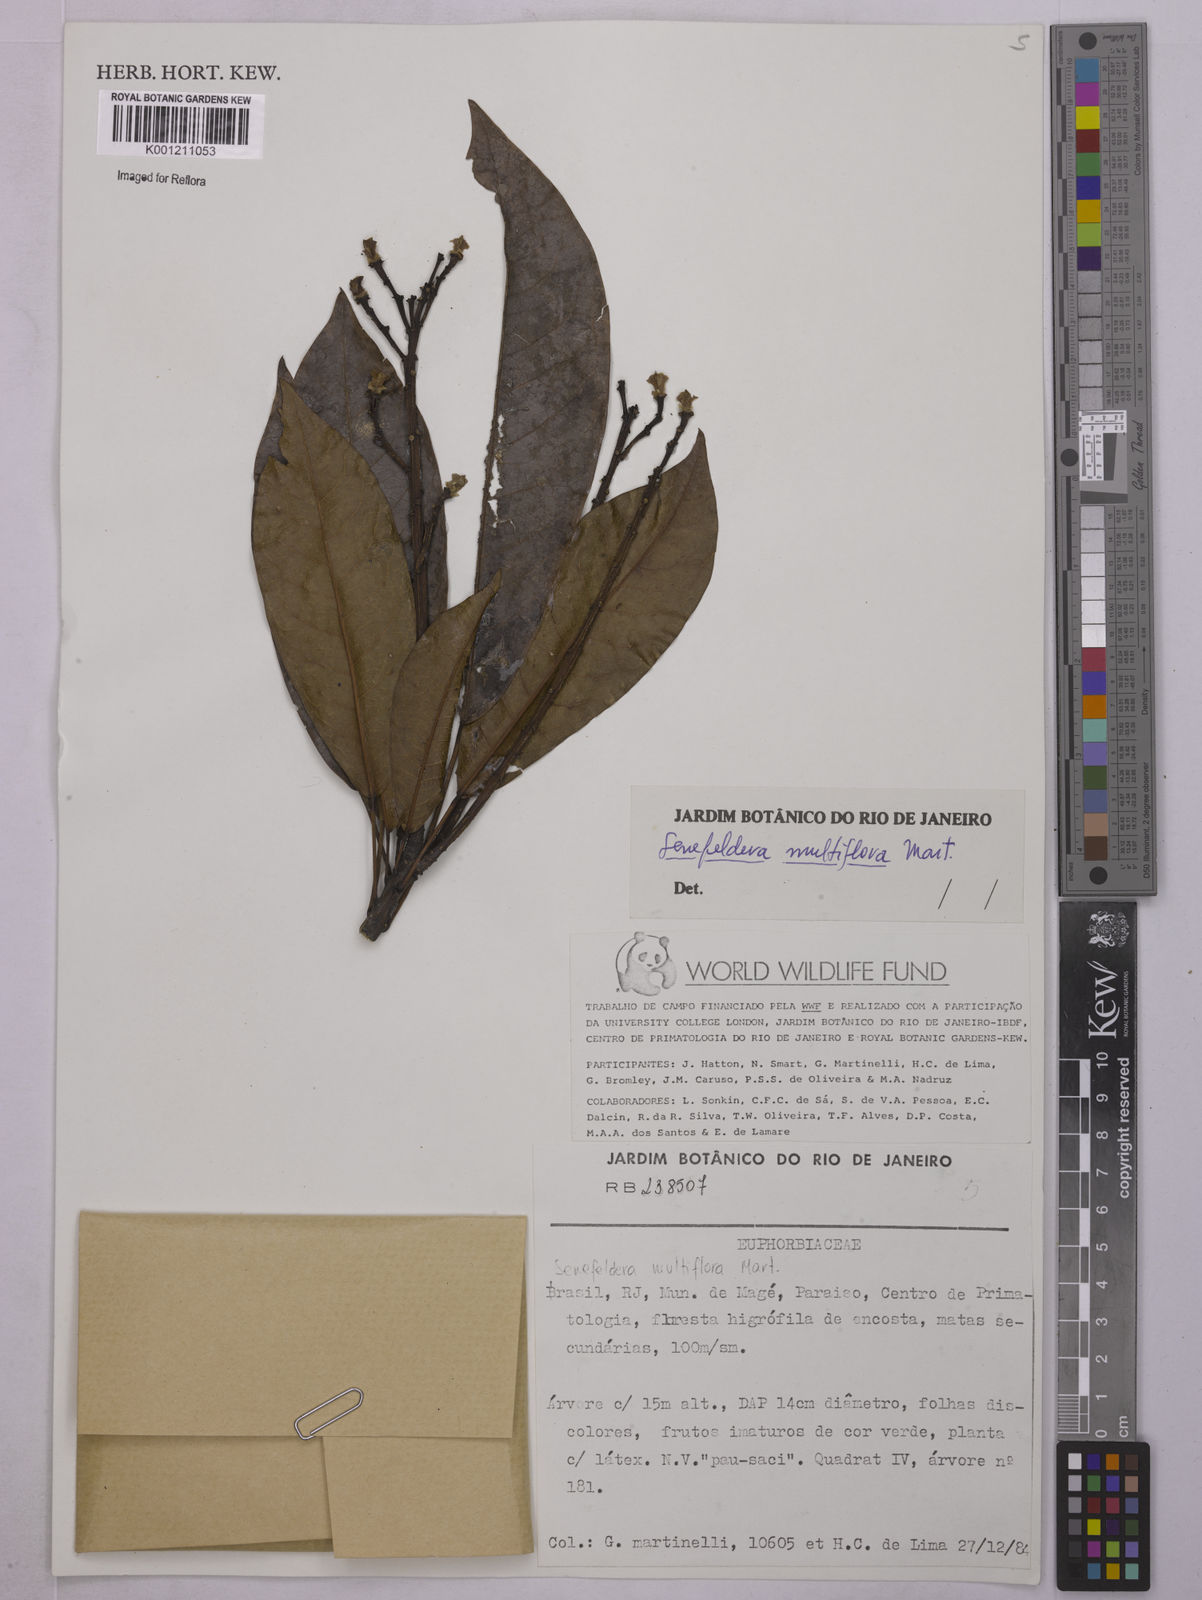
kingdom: Plantae
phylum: Tracheophyta
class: Magnoliopsida
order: Malpighiales
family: Euphorbiaceae
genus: Senefeldera
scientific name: Senefeldera verticillata
